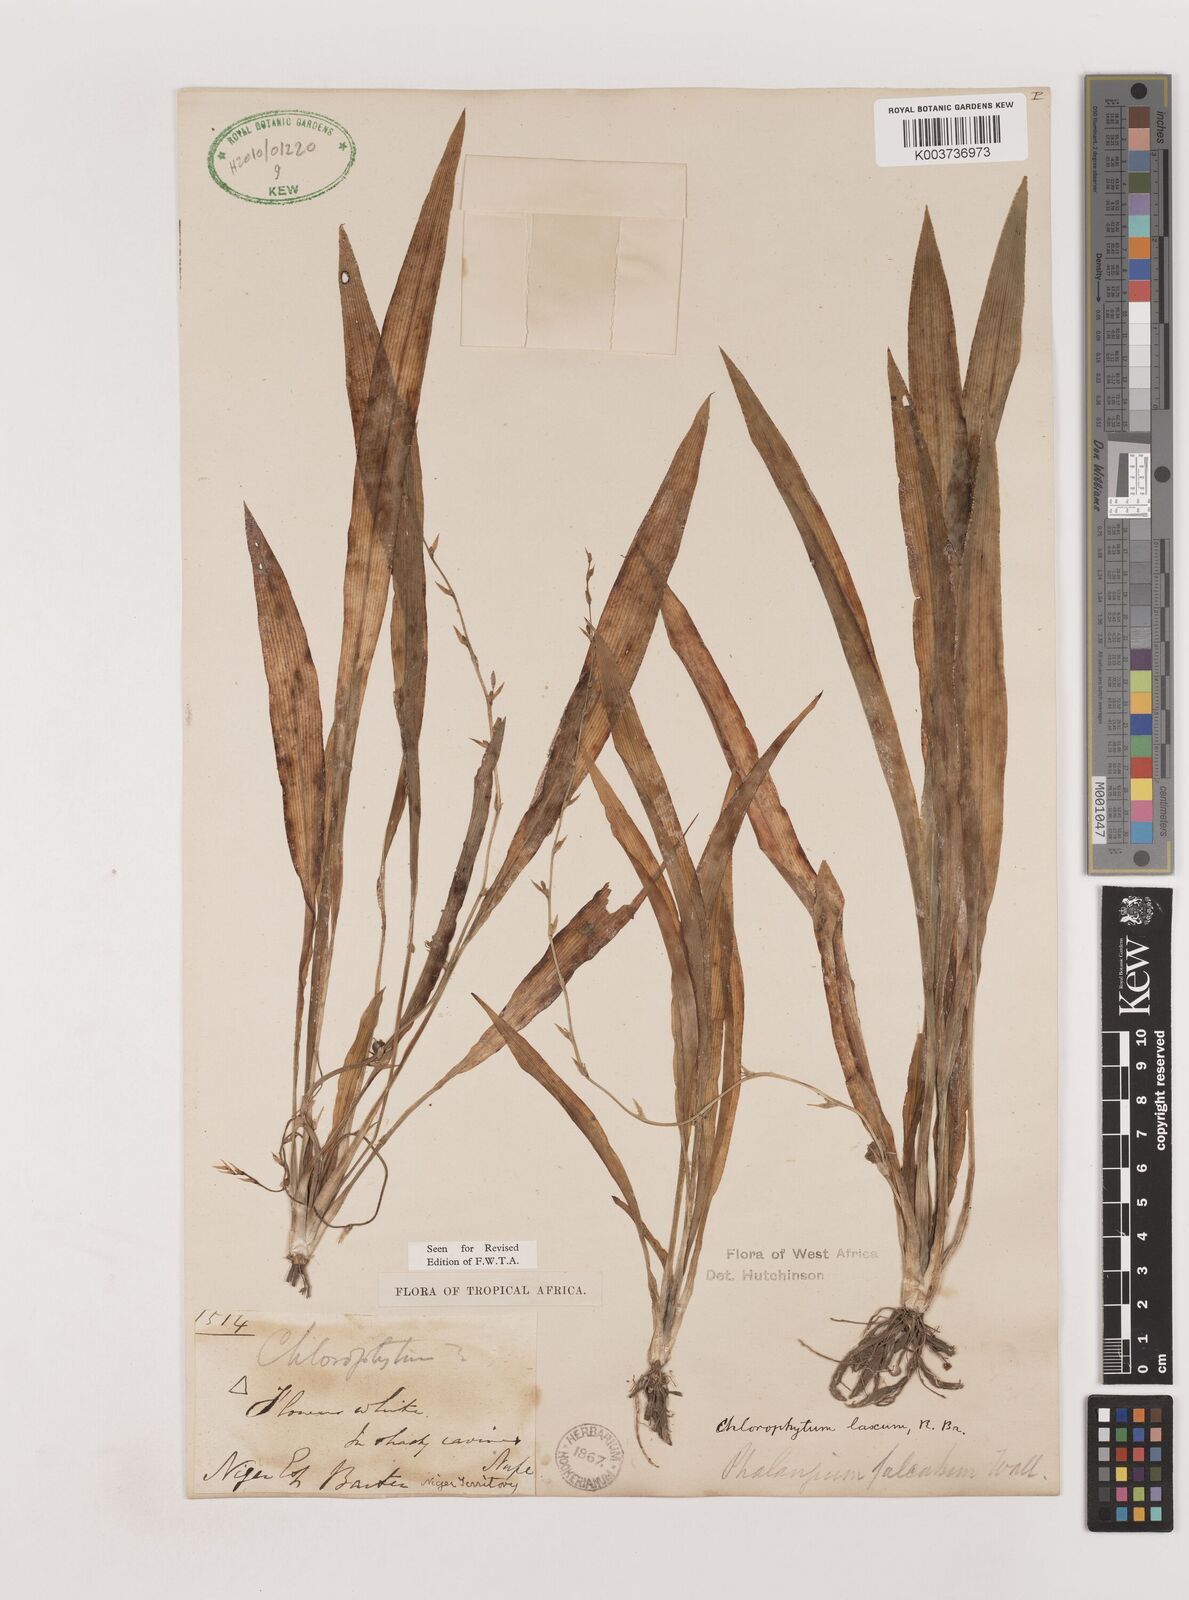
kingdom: Plantae
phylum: Tracheophyta
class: Liliopsida
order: Asparagales
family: Asparagaceae
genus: Chlorophytum
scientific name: Chlorophytum laxum
